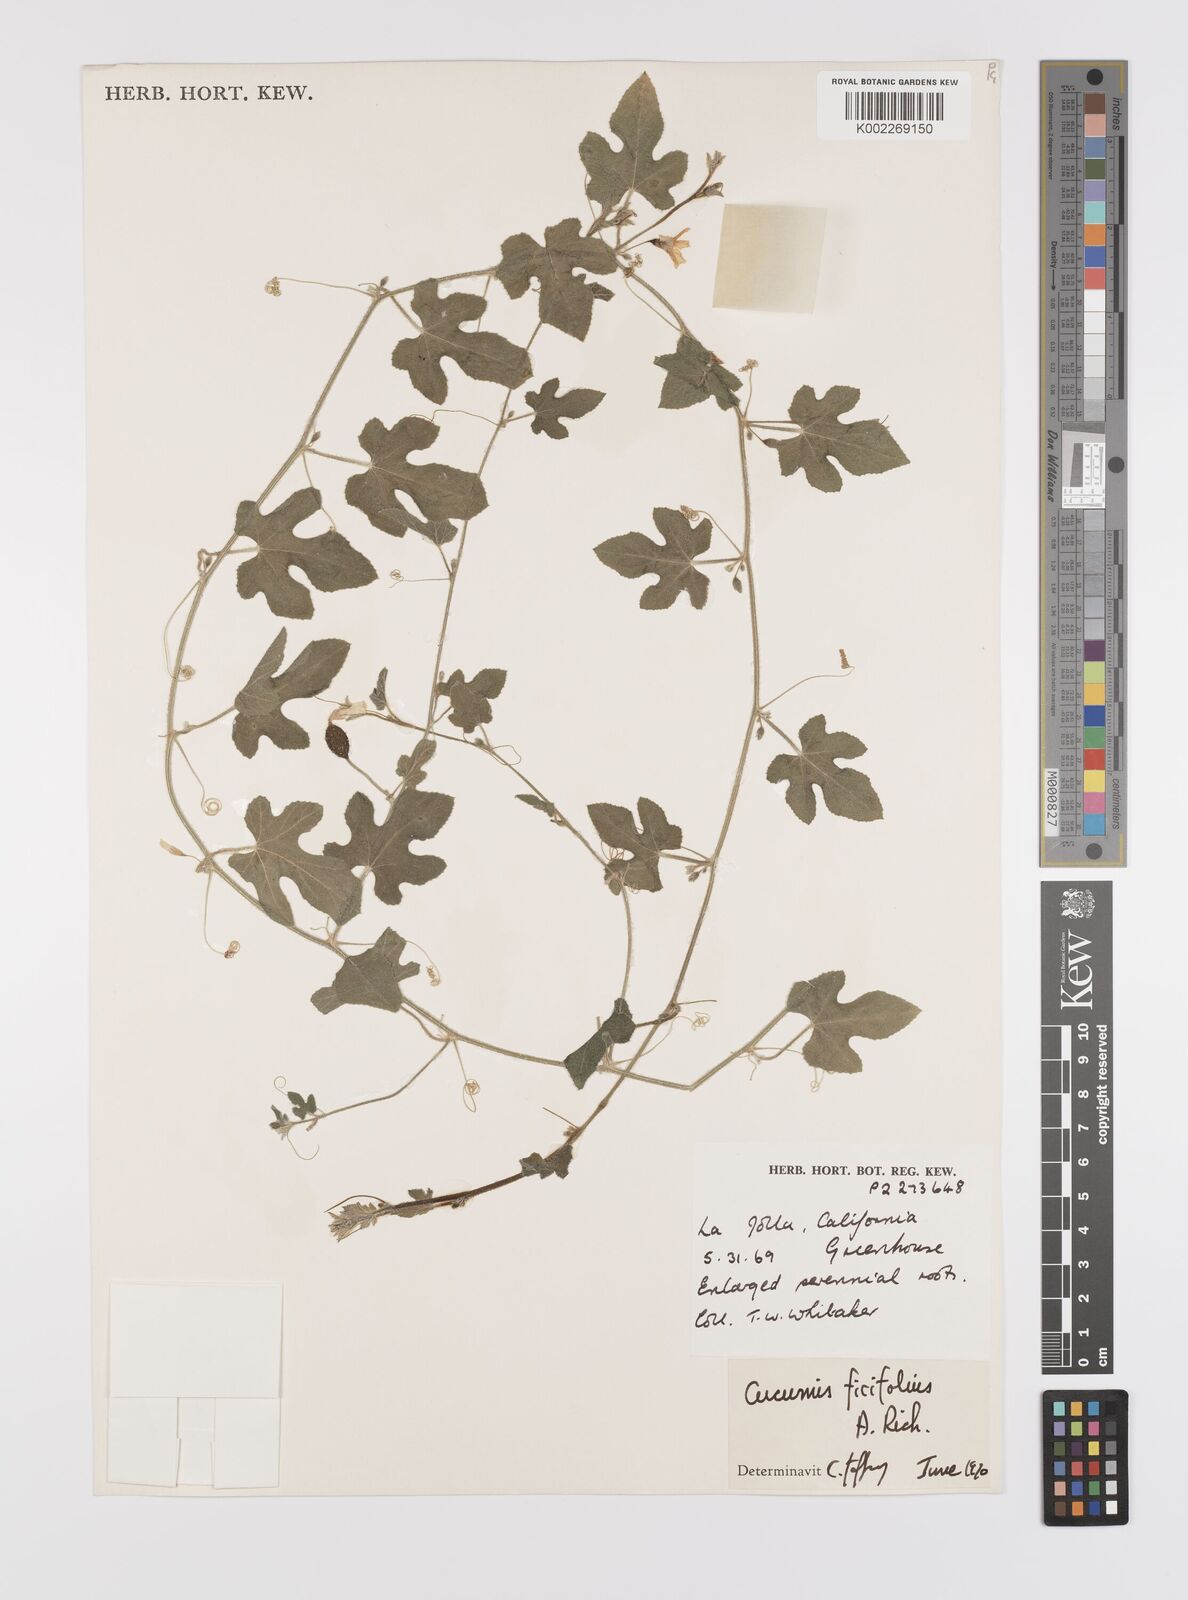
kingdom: Plantae
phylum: Tracheophyta
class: Magnoliopsida
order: Cucurbitales
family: Cucurbitaceae
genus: Cucumis
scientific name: Cucumis ficifolius
